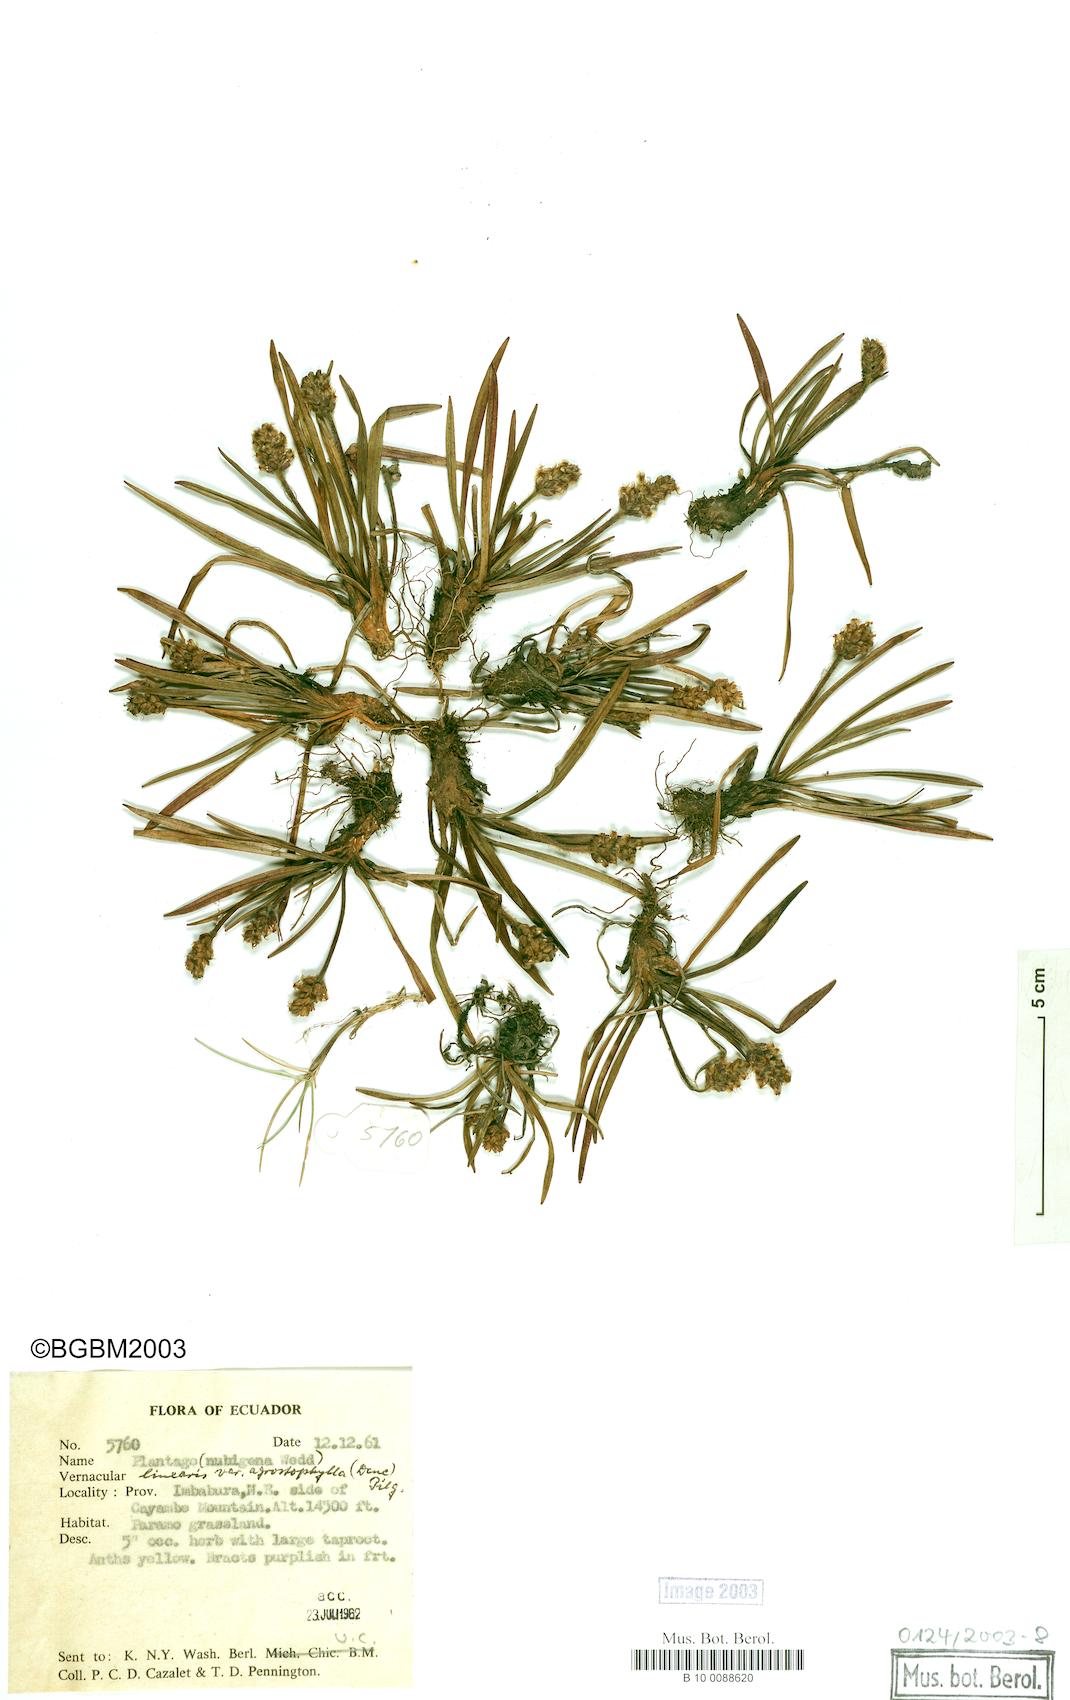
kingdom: Plantae
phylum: Tracheophyta
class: Magnoliopsida
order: Lamiales
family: Plantaginaceae
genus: Plantago
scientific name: Plantago nivea
